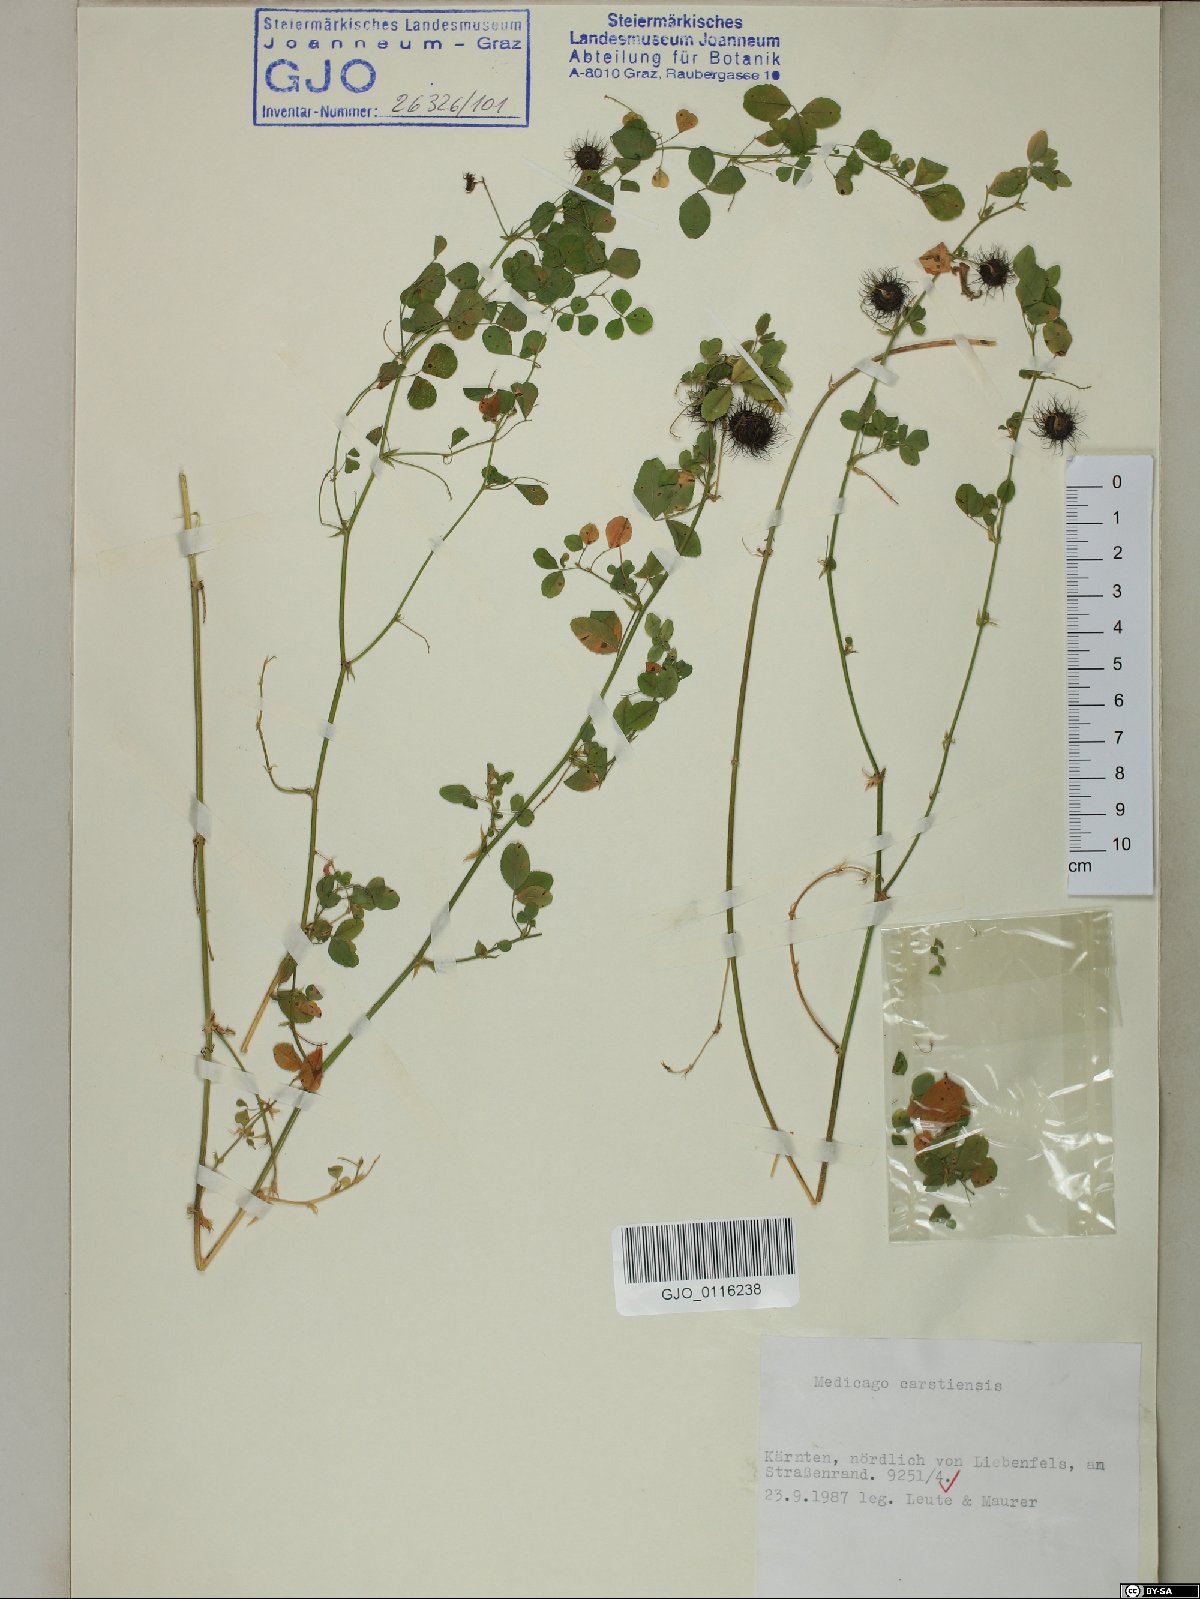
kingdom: Plantae
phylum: Tracheophyta
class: Magnoliopsida
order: Fabales
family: Fabaceae
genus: Medicago
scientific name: Medicago carstiensis
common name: Creeping-rooted medic
